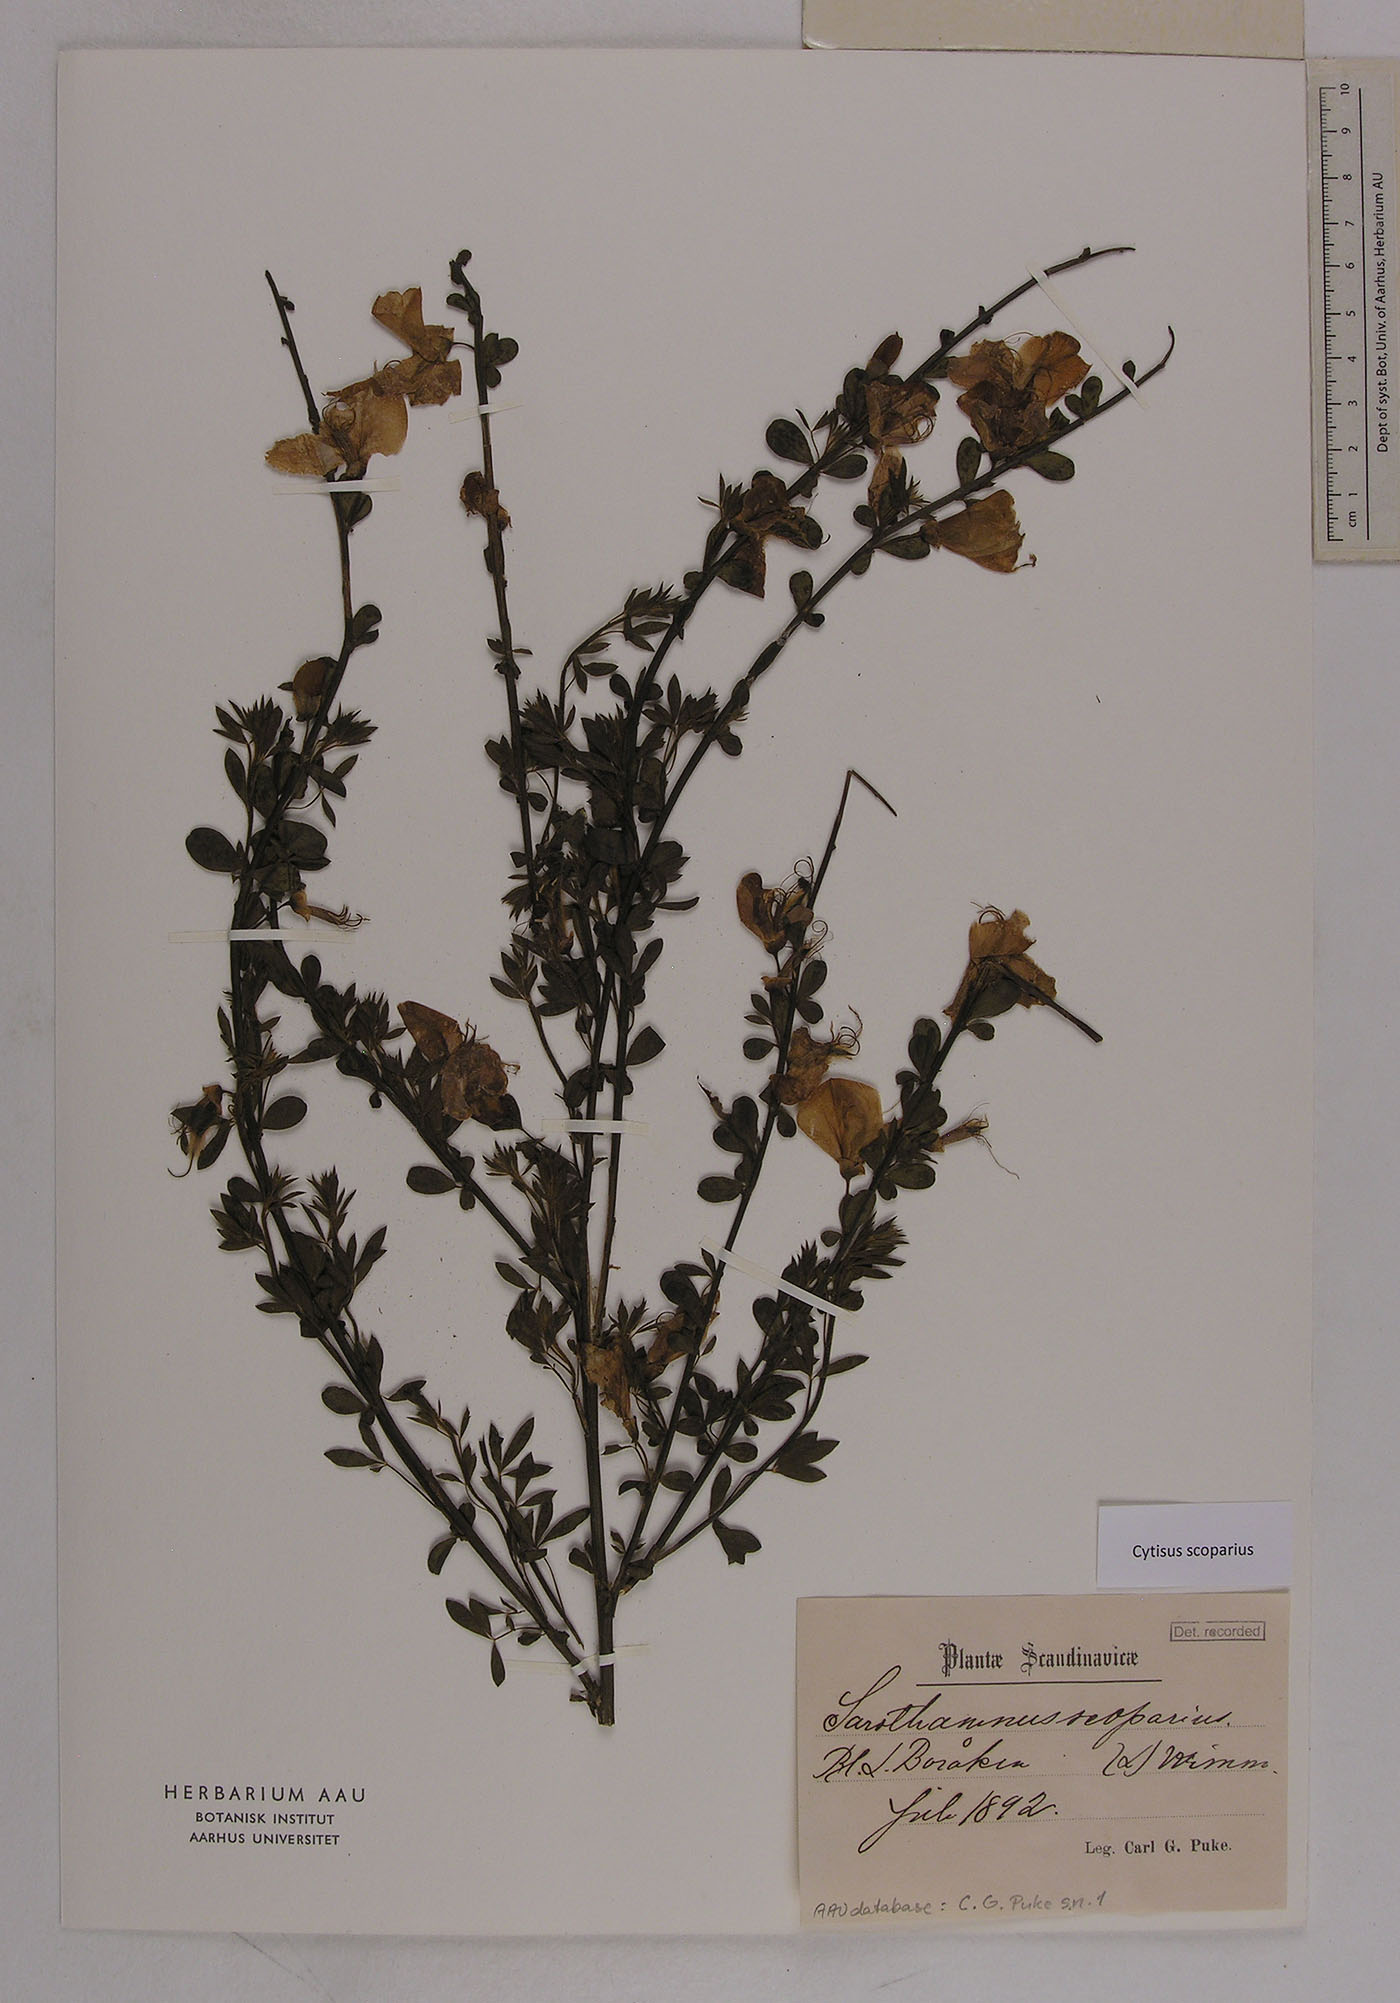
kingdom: Plantae
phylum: Tracheophyta
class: Magnoliopsida
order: Fabales
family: Fabaceae
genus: Cytisus
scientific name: Cytisus scoparius
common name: Scotch broom
